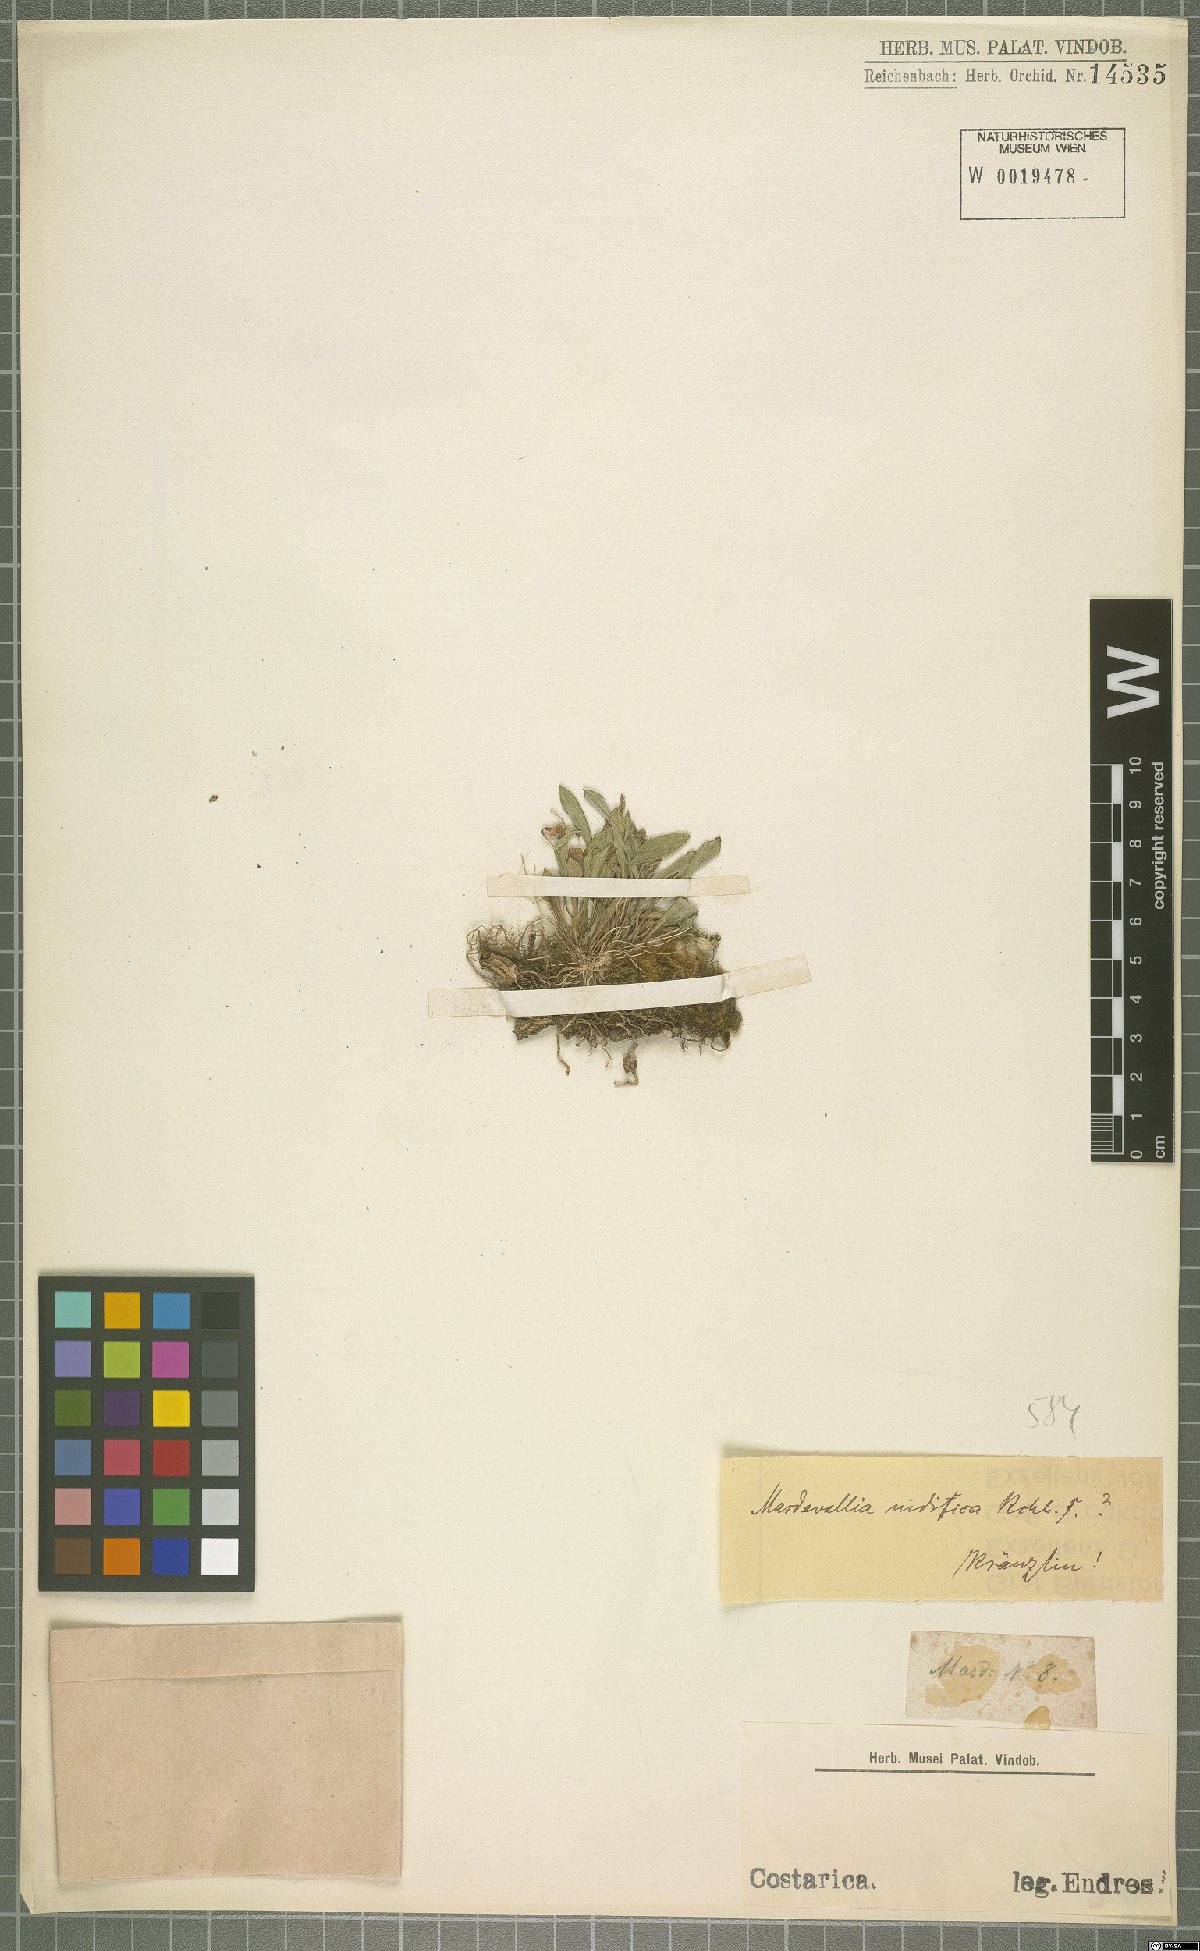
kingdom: Plantae
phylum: Tracheophyta
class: Liliopsida
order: Asparagales
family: Orchidaceae
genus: Masdevallia
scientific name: Masdevallia nidifica
